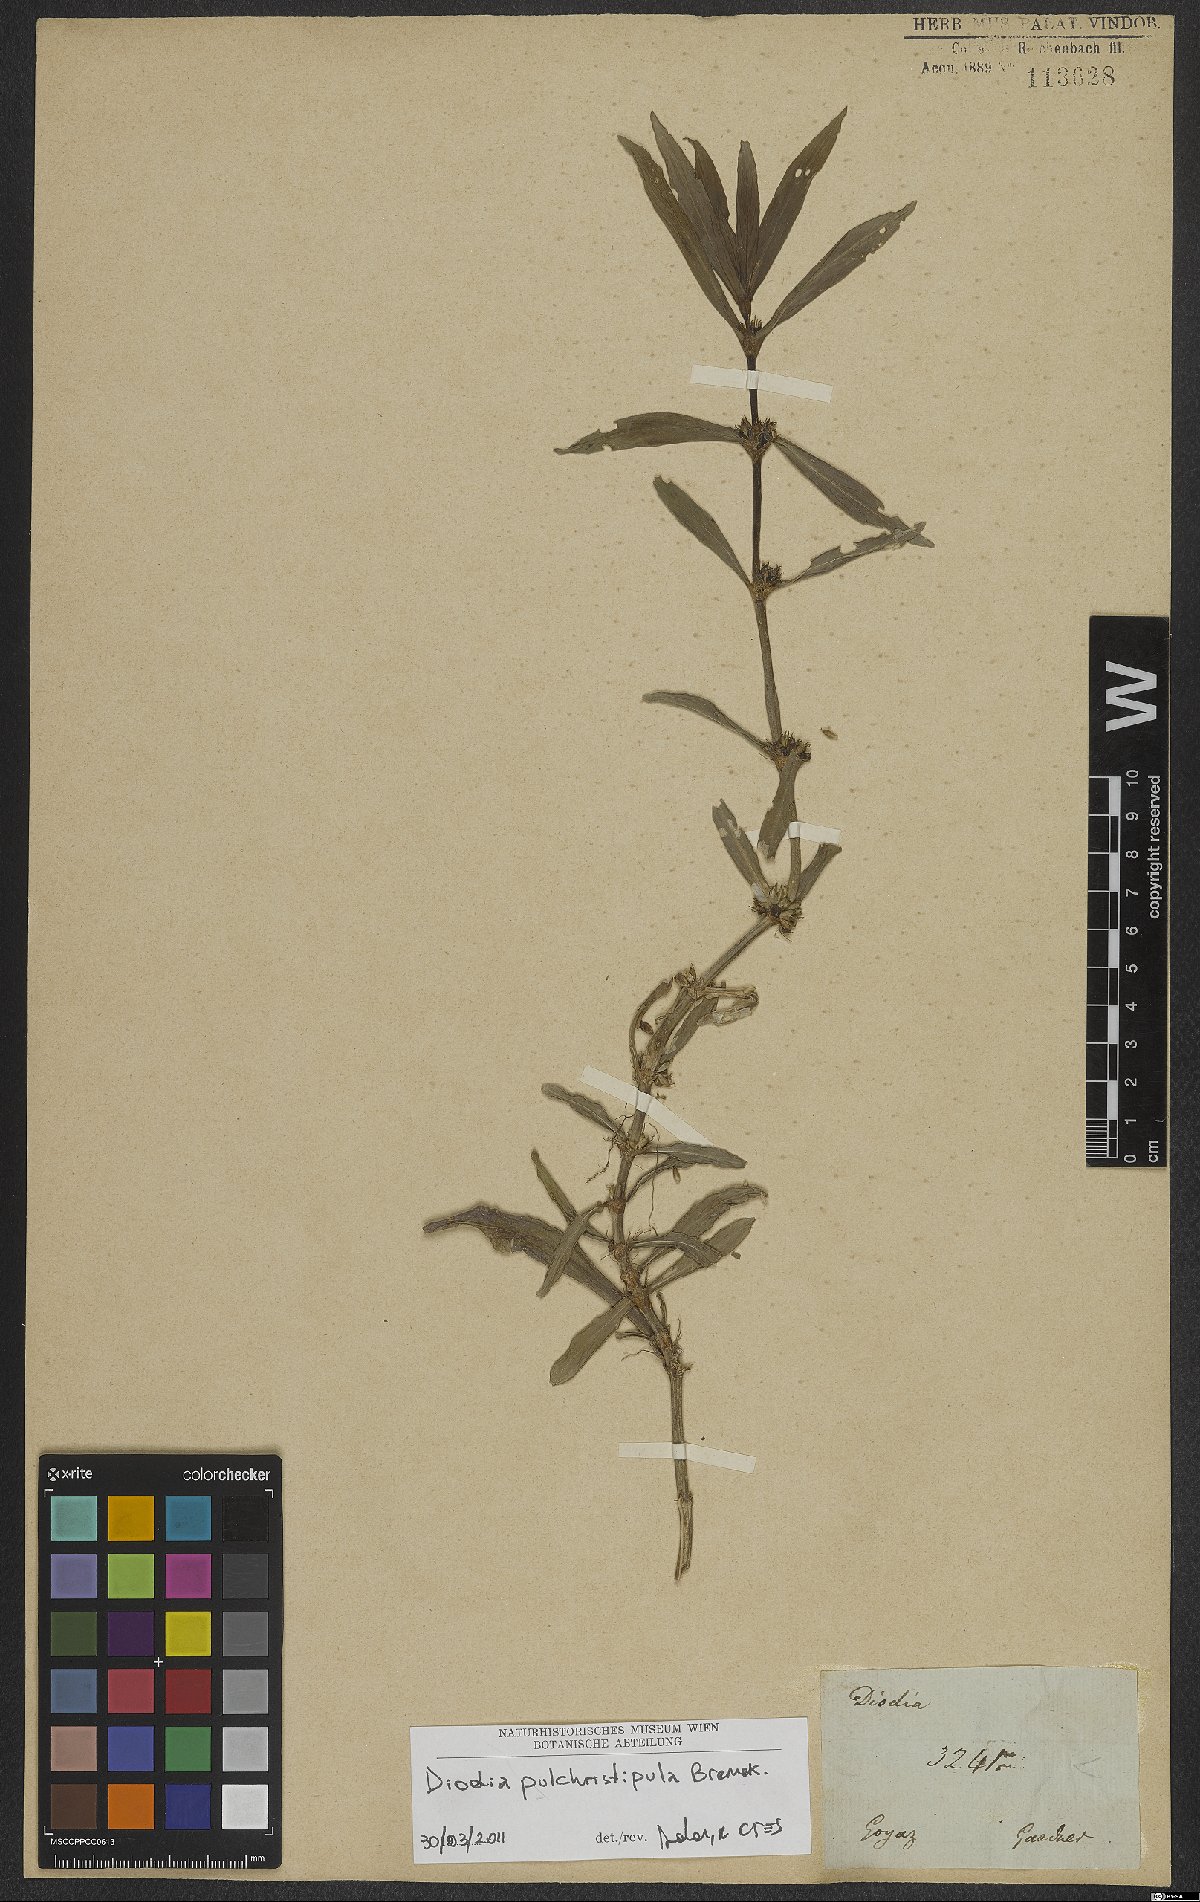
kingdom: Plantae
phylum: Tracheophyta
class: Magnoliopsida
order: Gentianales
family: Rubiaceae
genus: Spermacoce
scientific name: Spermacoce pulchristipula
